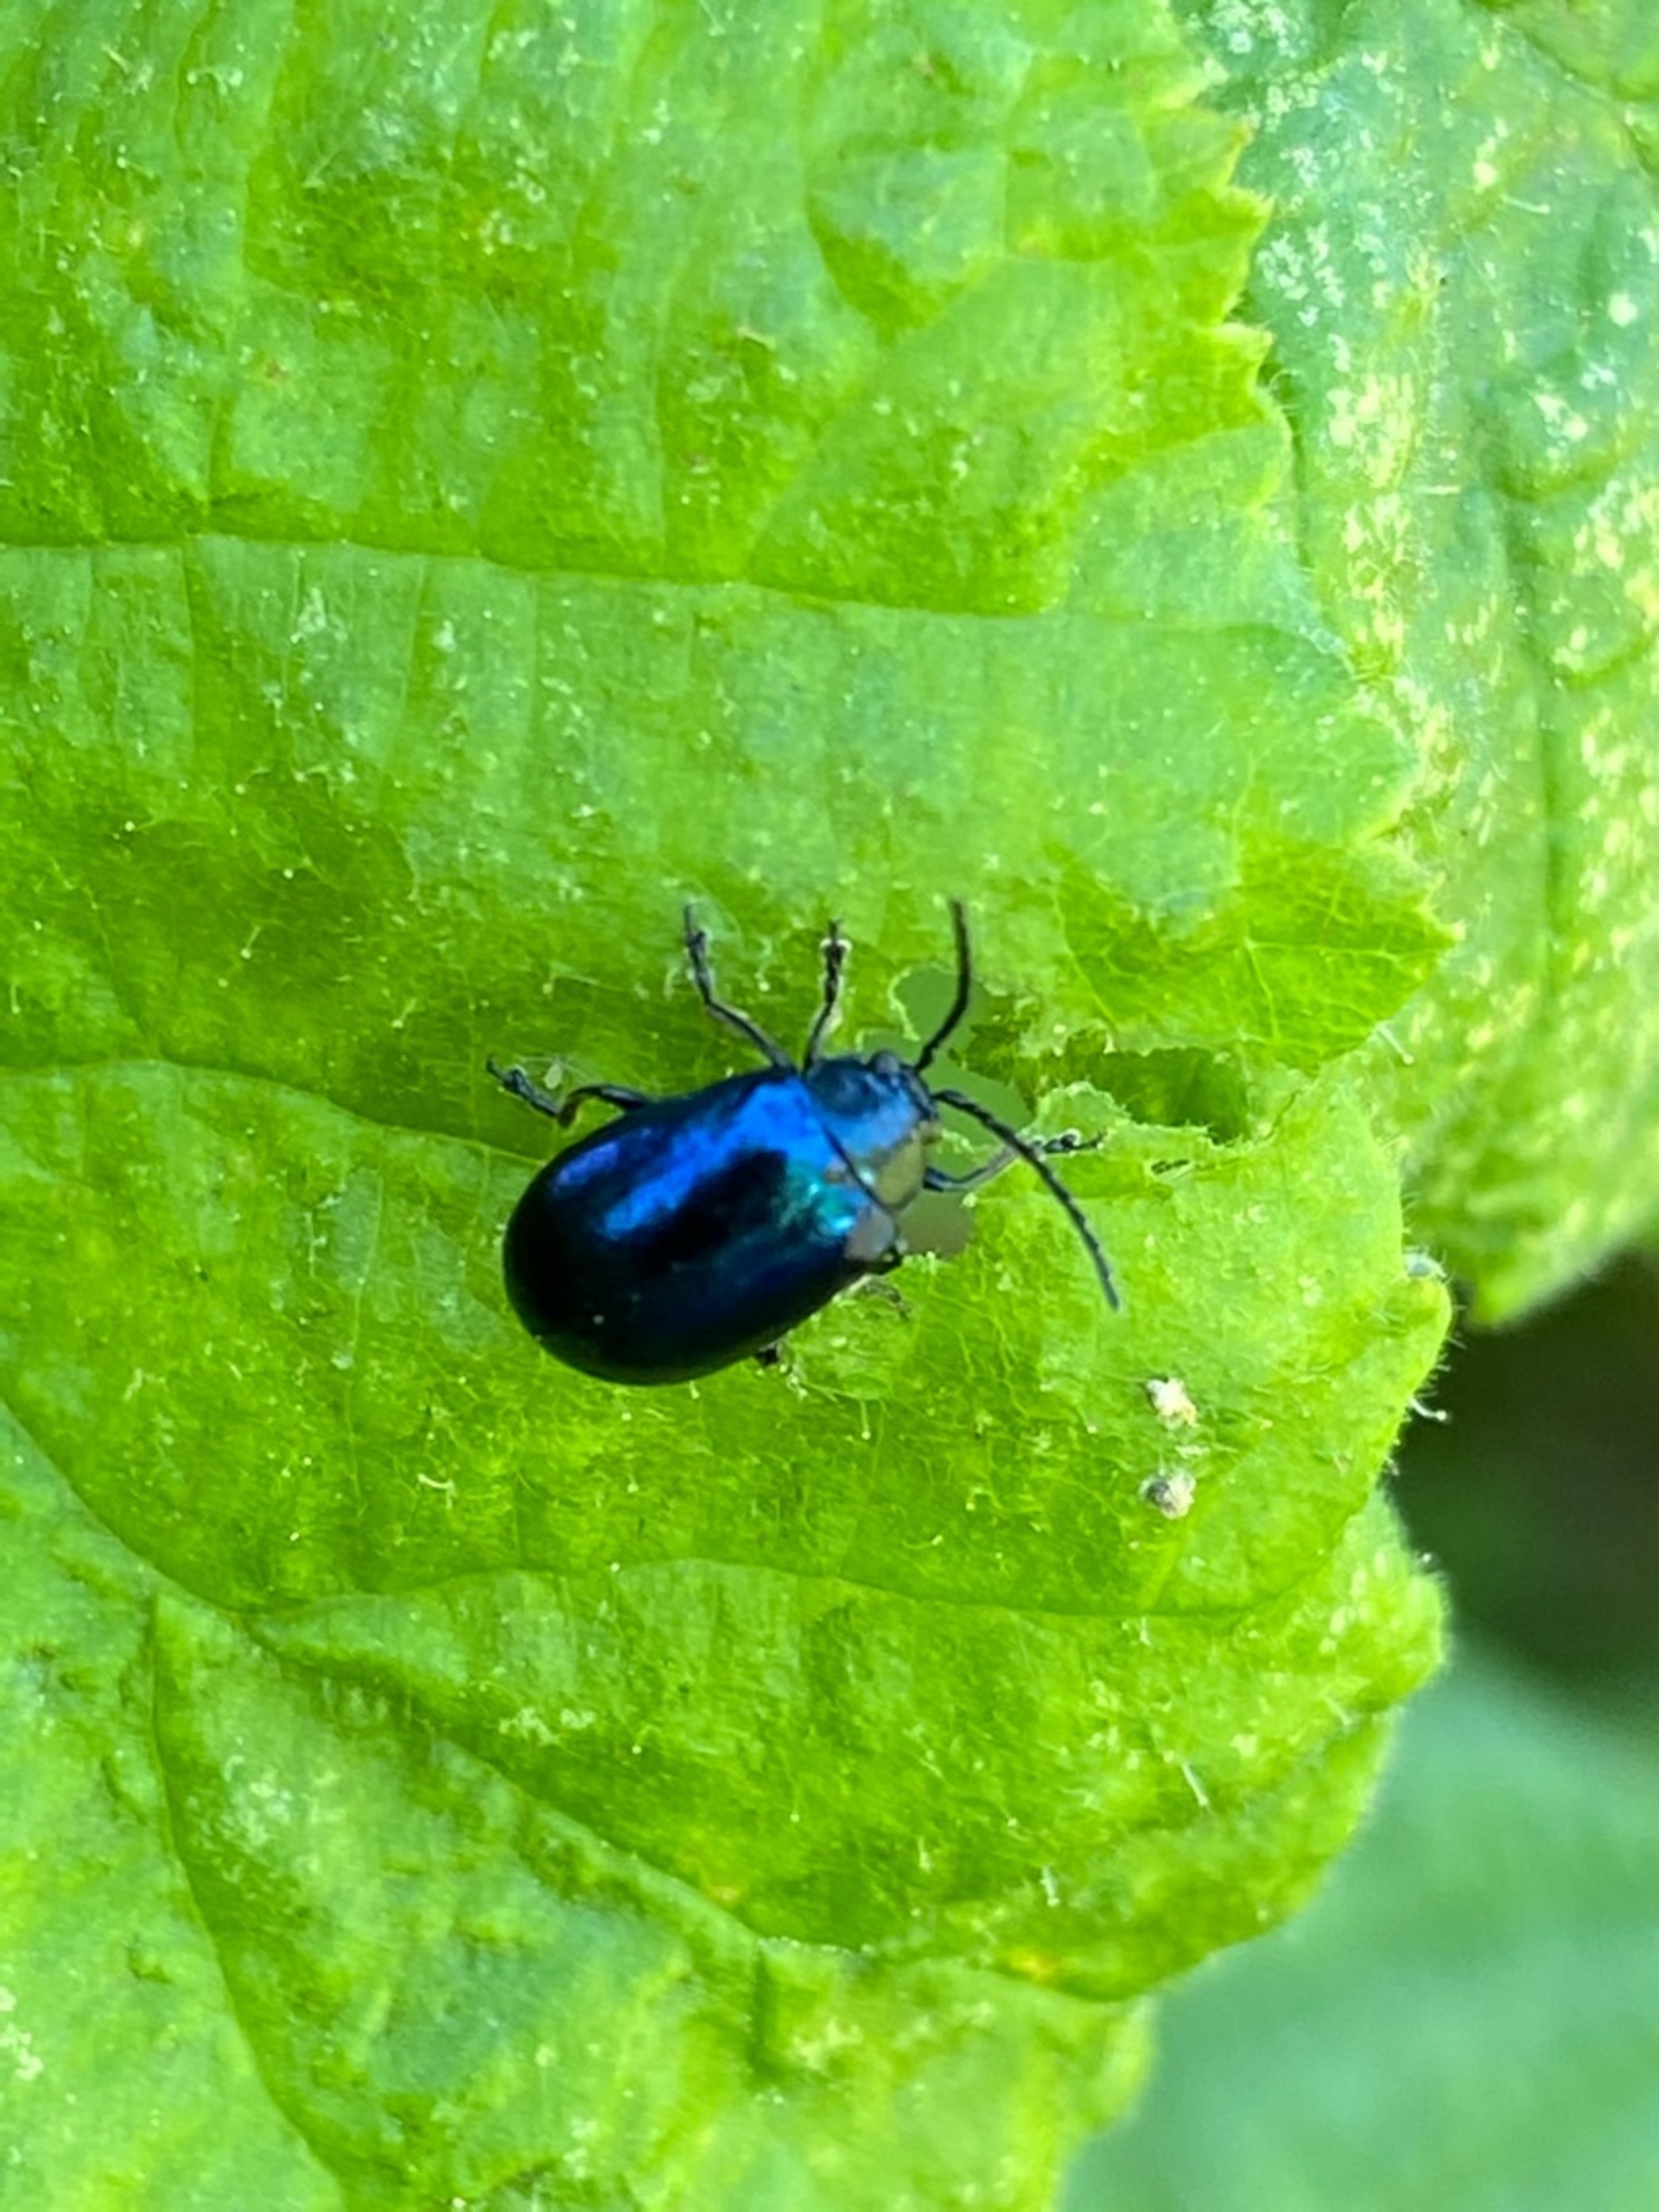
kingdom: Animalia
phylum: Arthropoda
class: Insecta
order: Coleoptera
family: Chrysomelidae
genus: Agelastica
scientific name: Agelastica alni
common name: Ellebladbille
